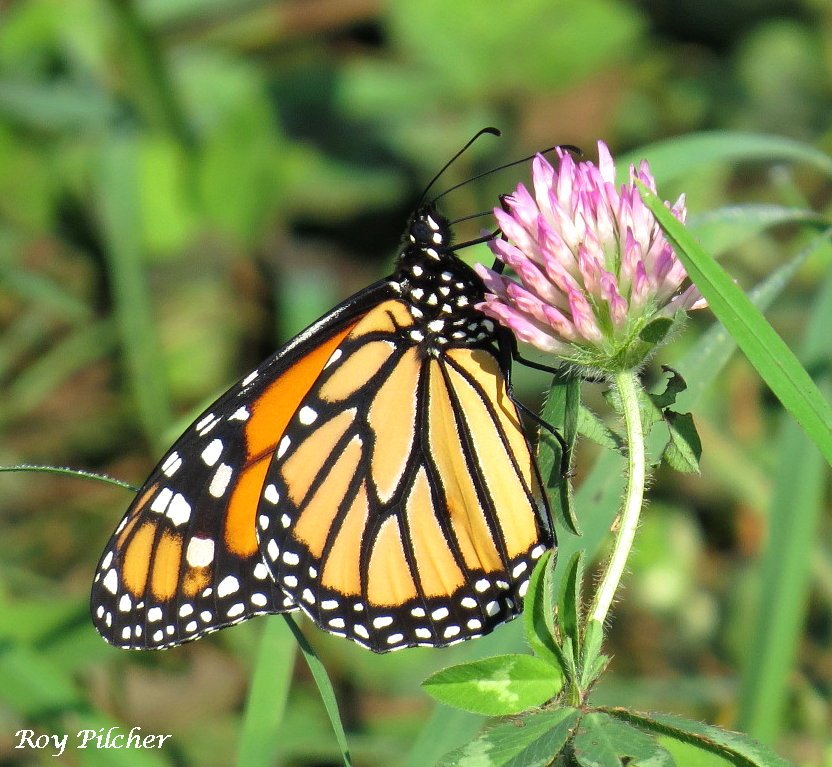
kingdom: Animalia
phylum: Arthropoda
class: Insecta
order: Lepidoptera
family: Nymphalidae
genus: Danaus
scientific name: Danaus plexippus
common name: Monarch
